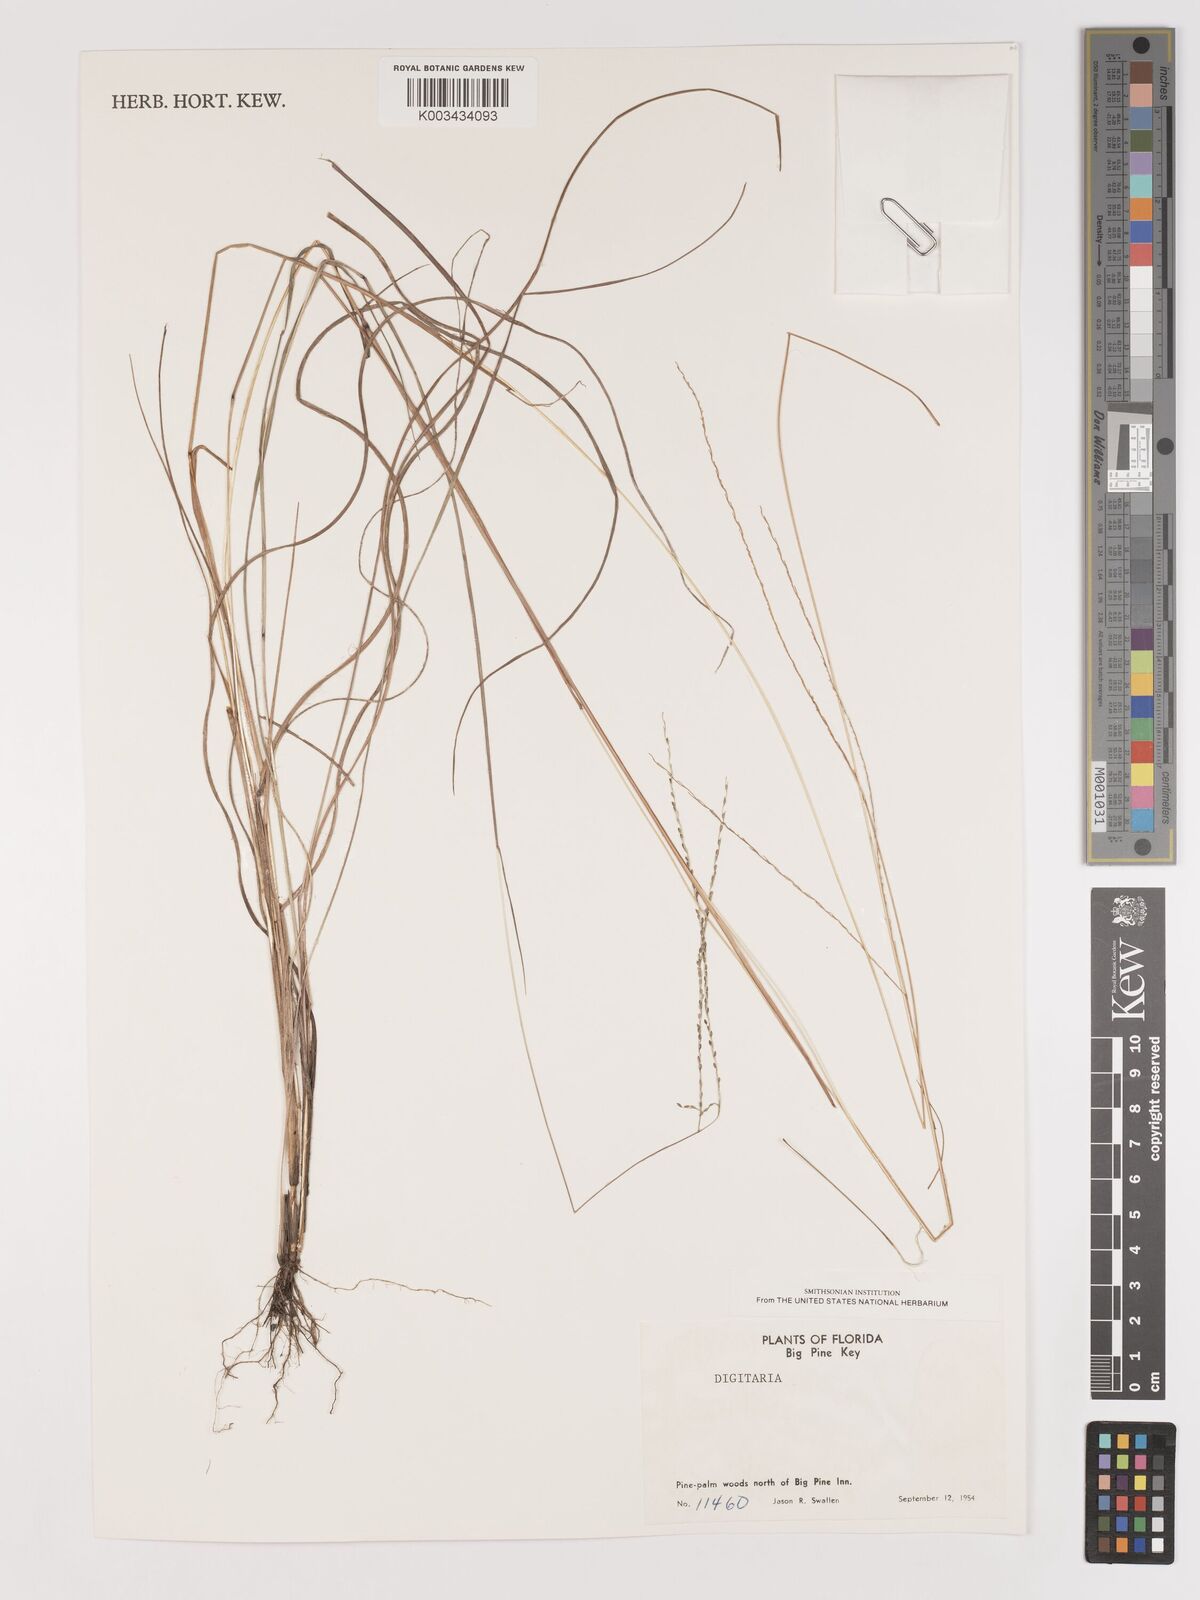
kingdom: Plantae
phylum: Tracheophyta
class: Liliopsida
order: Poales
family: Poaceae
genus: Digitaria
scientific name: Digitaria spec
